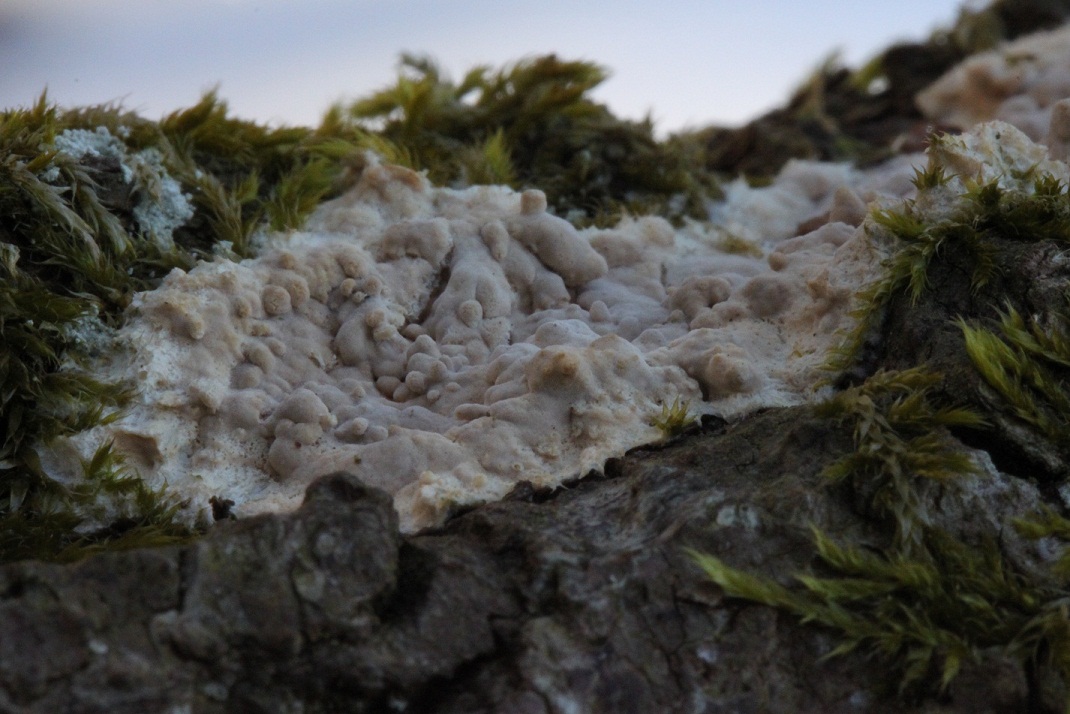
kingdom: Fungi
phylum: Basidiomycota
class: Agaricomycetes
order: Corticiales
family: Corticiaceae
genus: Corticium
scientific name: Corticium roseum
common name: rosa barkskind
